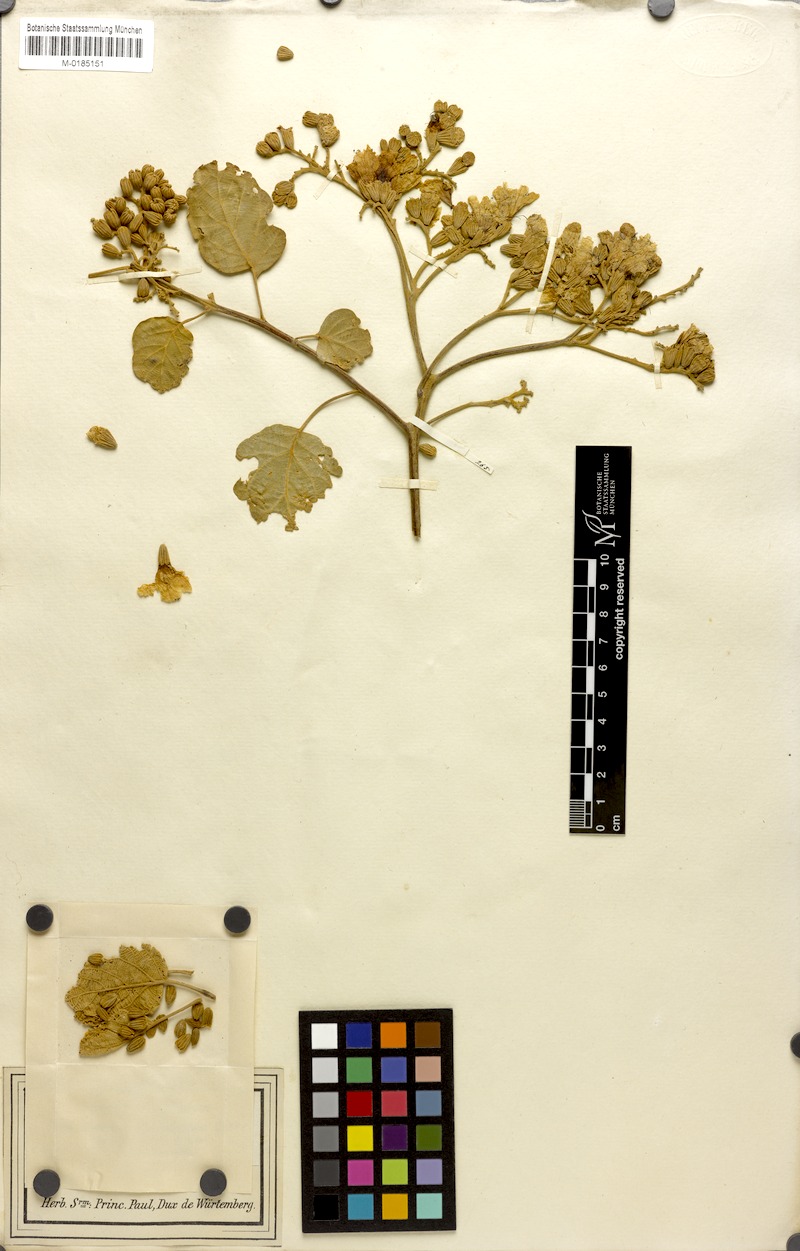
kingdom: Plantae
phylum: Tracheophyta
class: Magnoliopsida
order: Boraginales
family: Cordiaceae
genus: Cordia
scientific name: Cordia africana
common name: Large-leaved cordia
